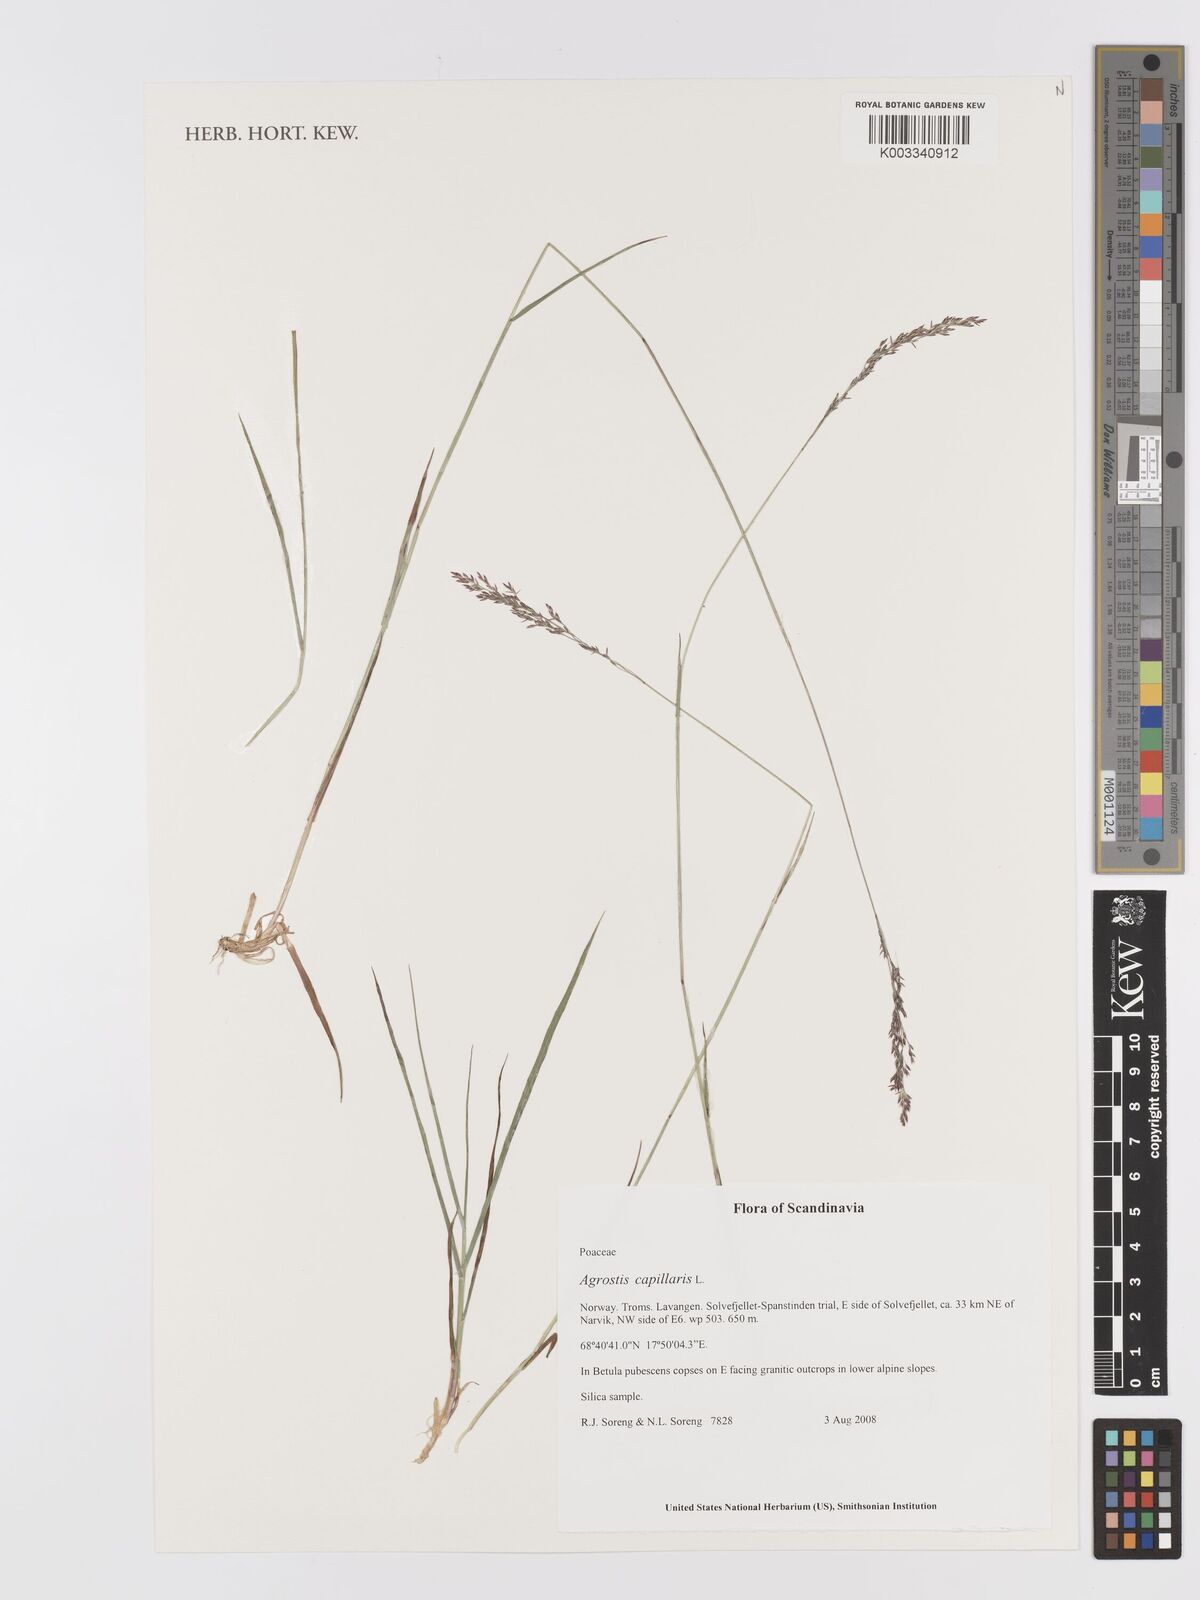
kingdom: Plantae
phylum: Tracheophyta
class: Liliopsida
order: Poales
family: Poaceae
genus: Agrostis
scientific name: Agrostis capillaris
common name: Colonial bentgrass
